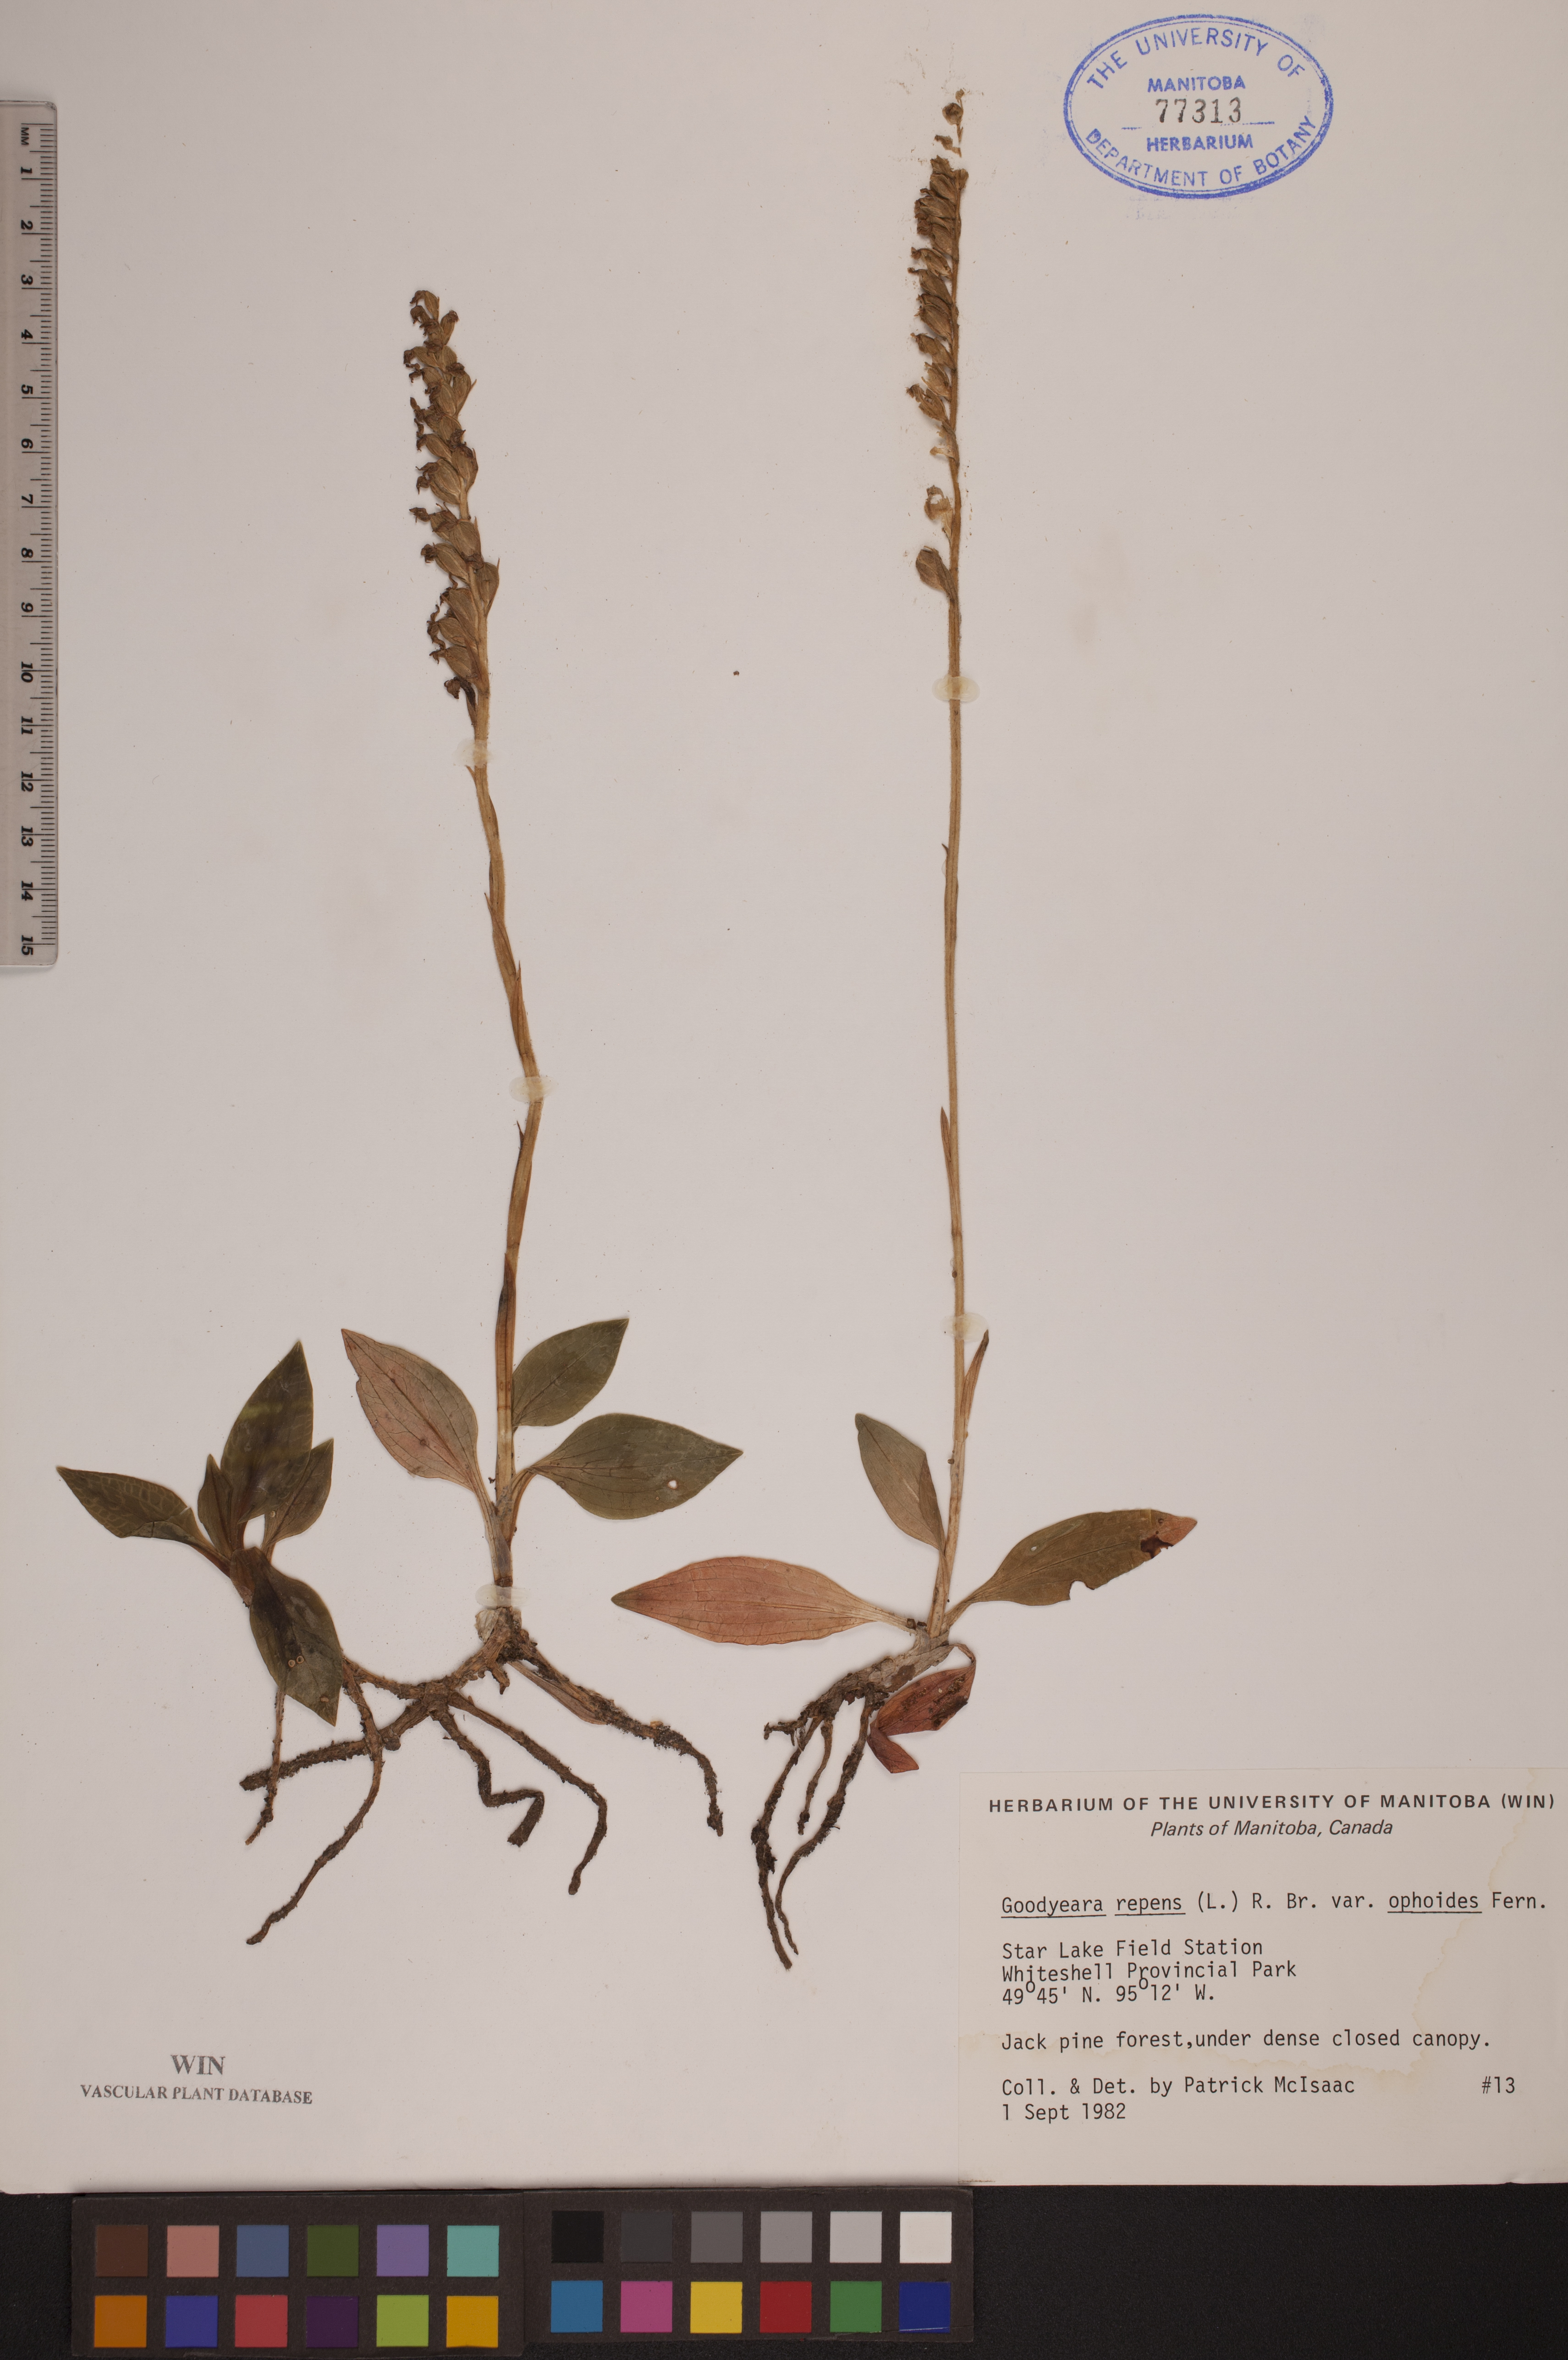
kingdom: Plantae
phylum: Tracheophyta
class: Liliopsida
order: Asparagales
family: Orchidaceae
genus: Goodyera
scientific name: Goodyera repens
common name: Creeping lady's-tresses
